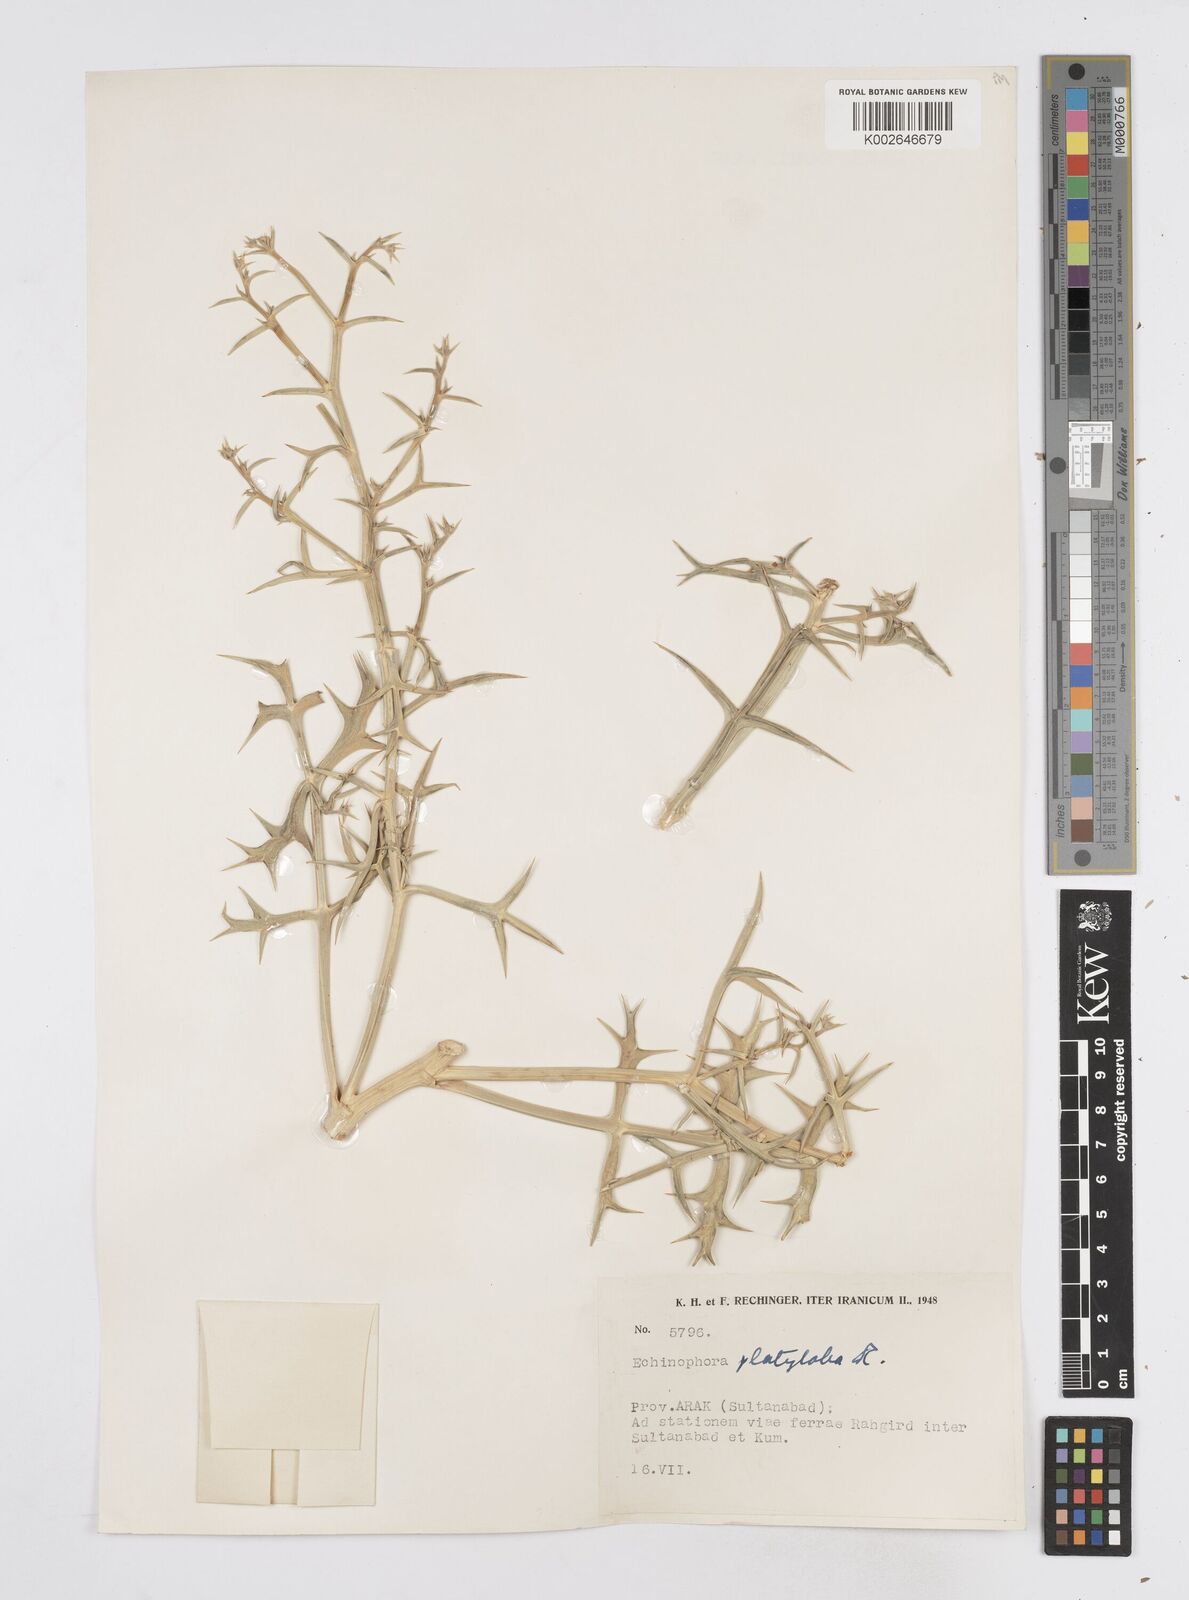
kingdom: Plantae
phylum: Tracheophyta
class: Magnoliopsida
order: Apiales
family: Apiaceae
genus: Echinophora
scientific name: Echinophora platyloba
